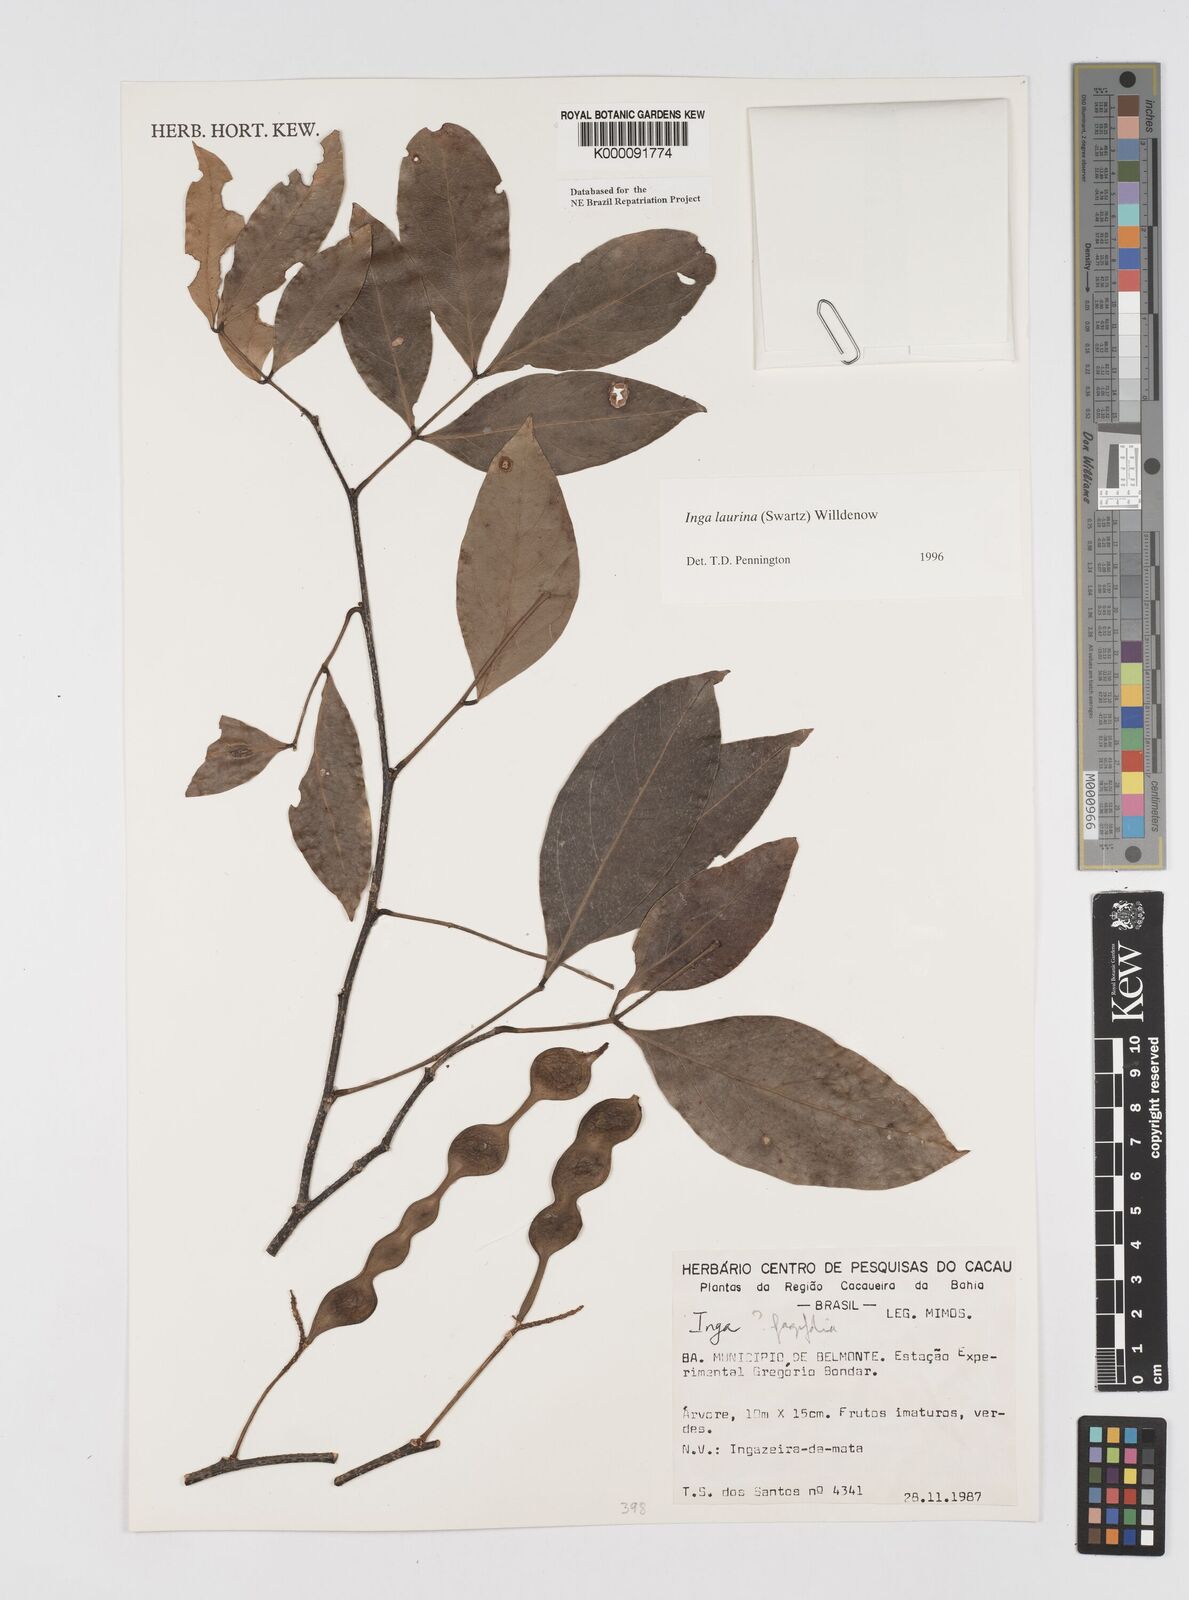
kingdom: Plantae
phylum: Tracheophyta
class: Magnoliopsida
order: Fabales
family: Fabaceae
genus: Inga
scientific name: Inga laurina
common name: Red wood
